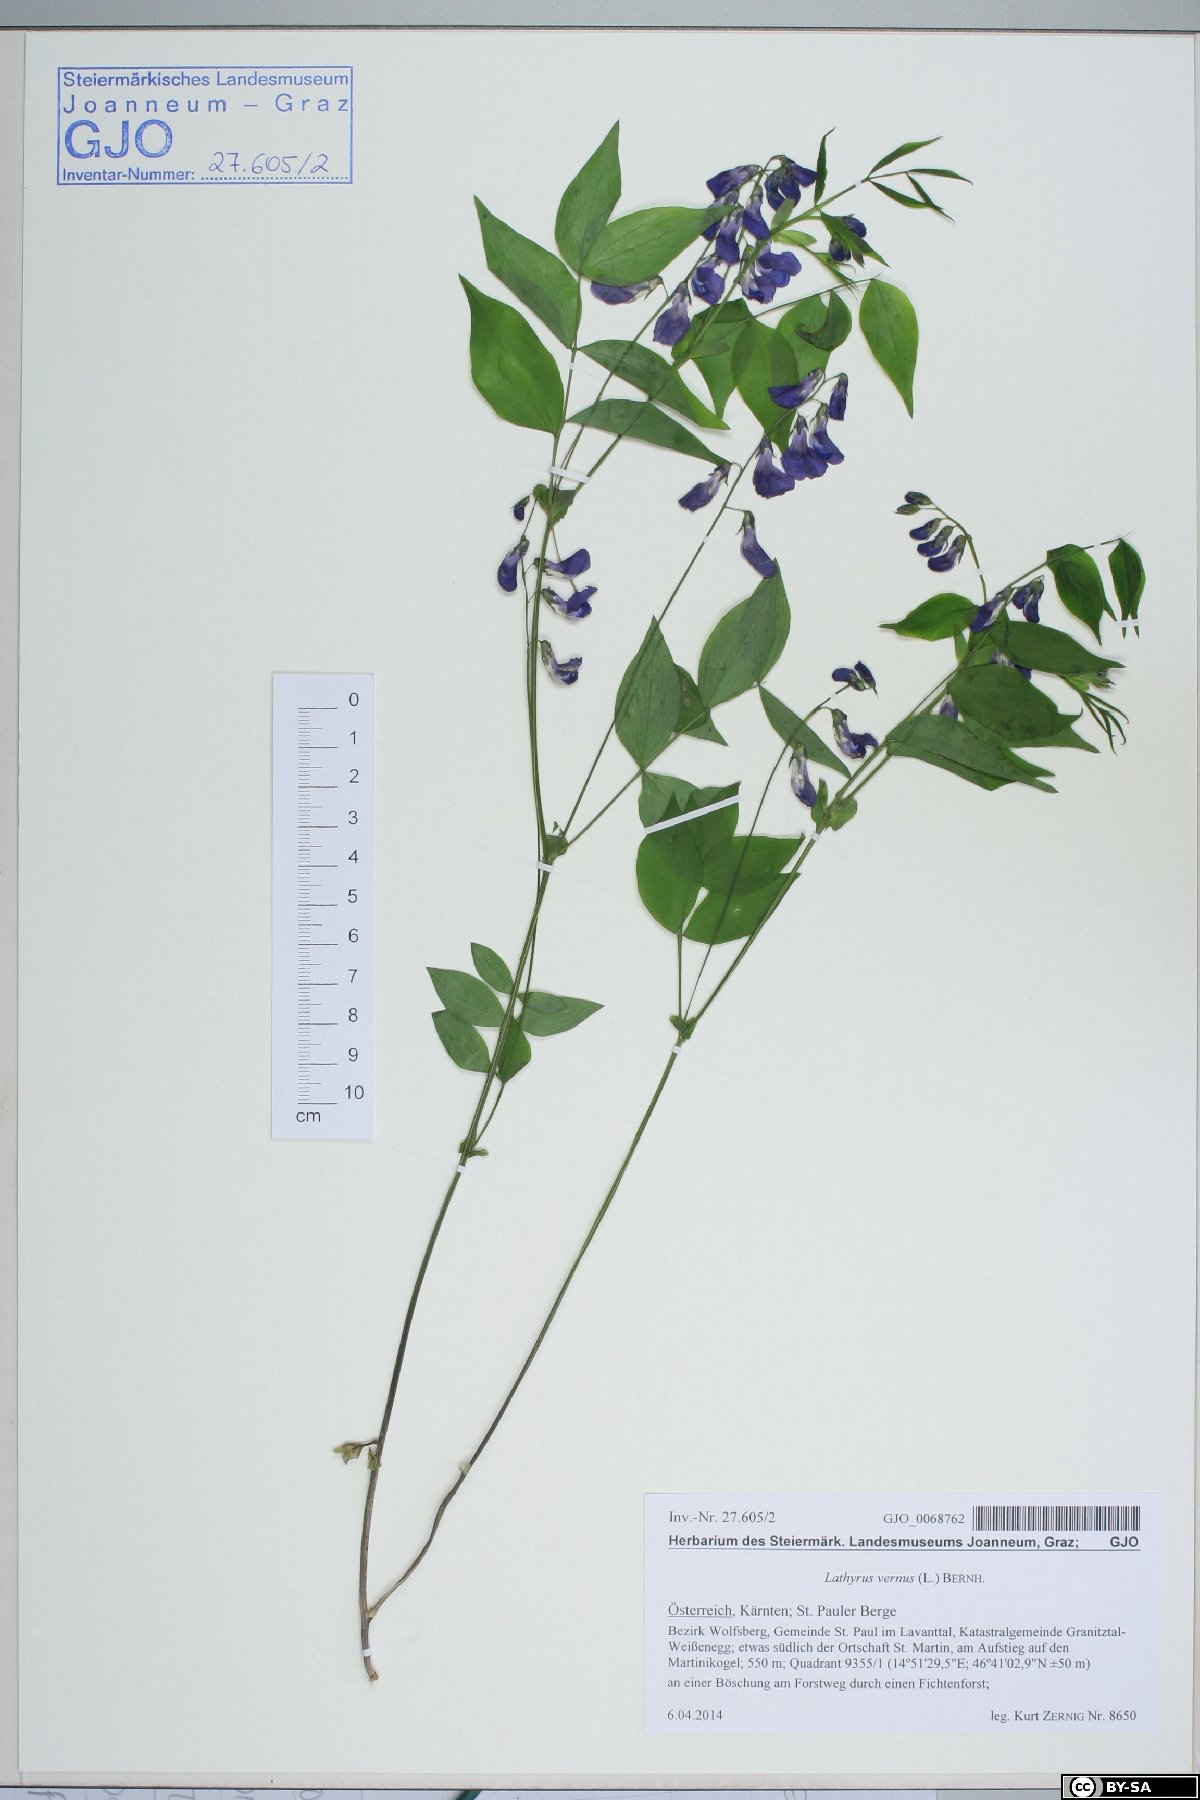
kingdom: Plantae
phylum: Tracheophyta
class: Magnoliopsida
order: Fabales
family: Fabaceae
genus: Lathyrus
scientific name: Lathyrus vernus
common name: Spring pea
